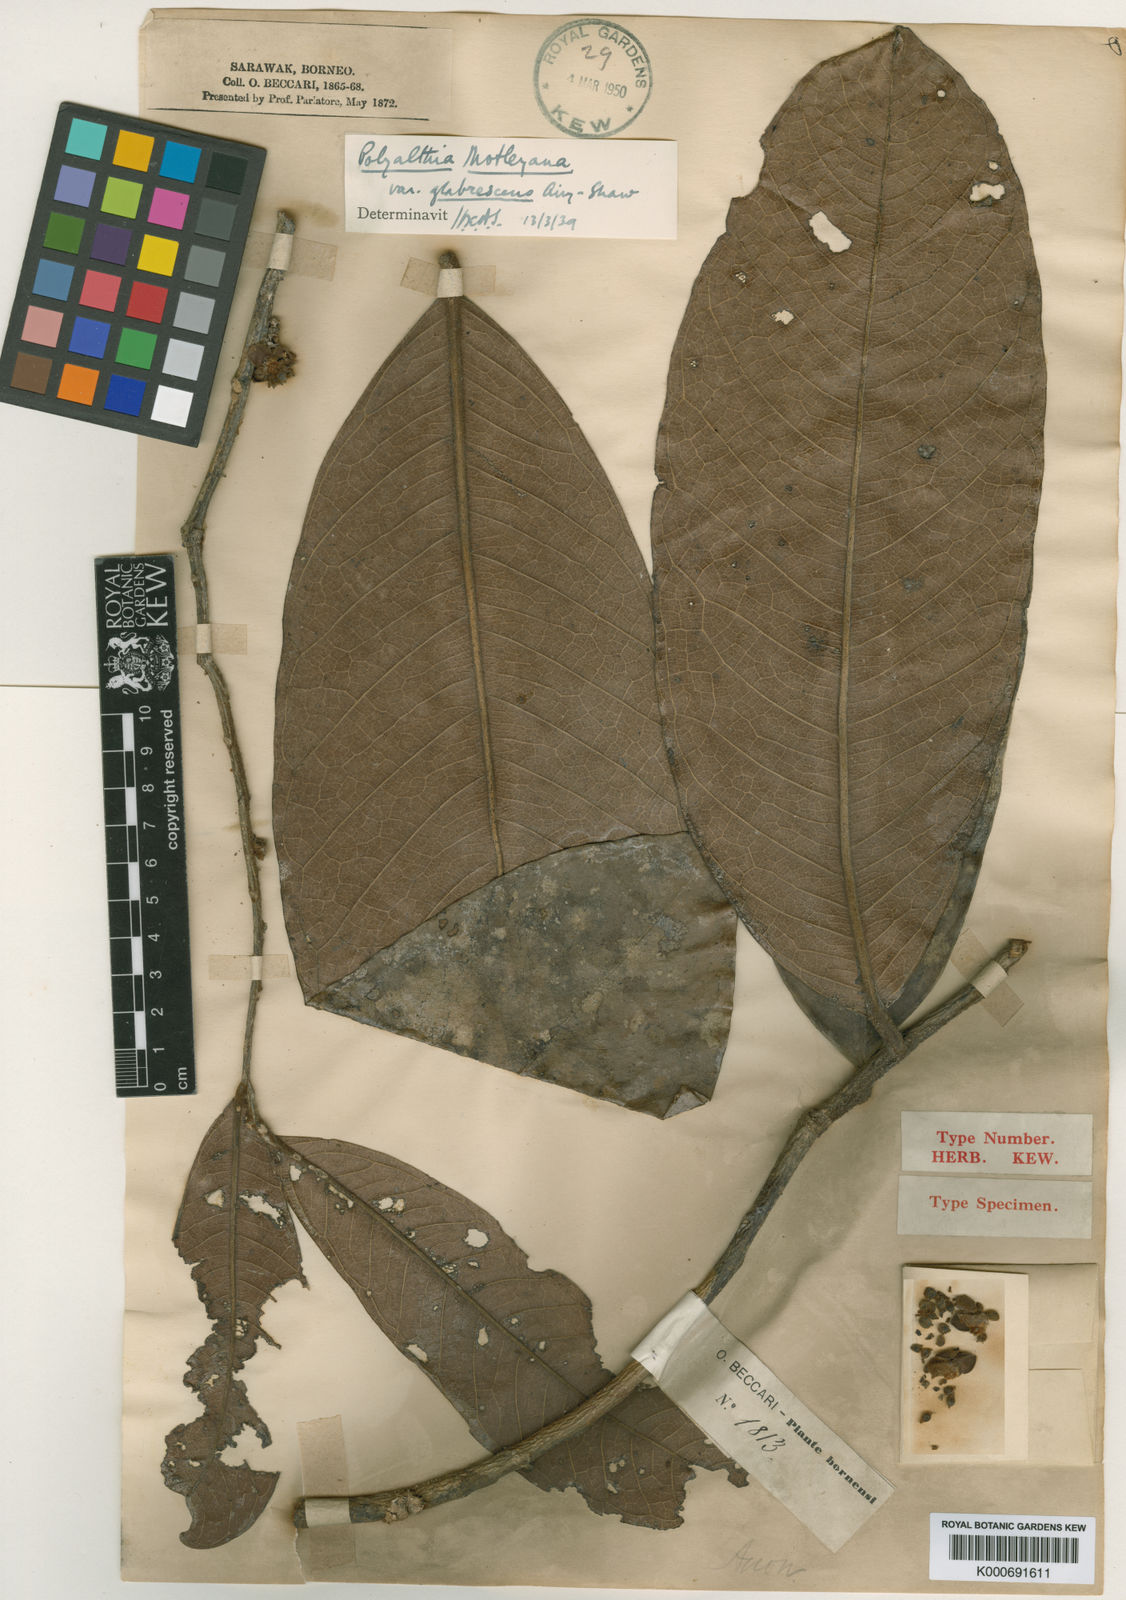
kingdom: Plantae
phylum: Tracheophyta
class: Magnoliopsida
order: Magnoliales
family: Annonaceae
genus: Polyalthia
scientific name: Polyalthia motleyana
